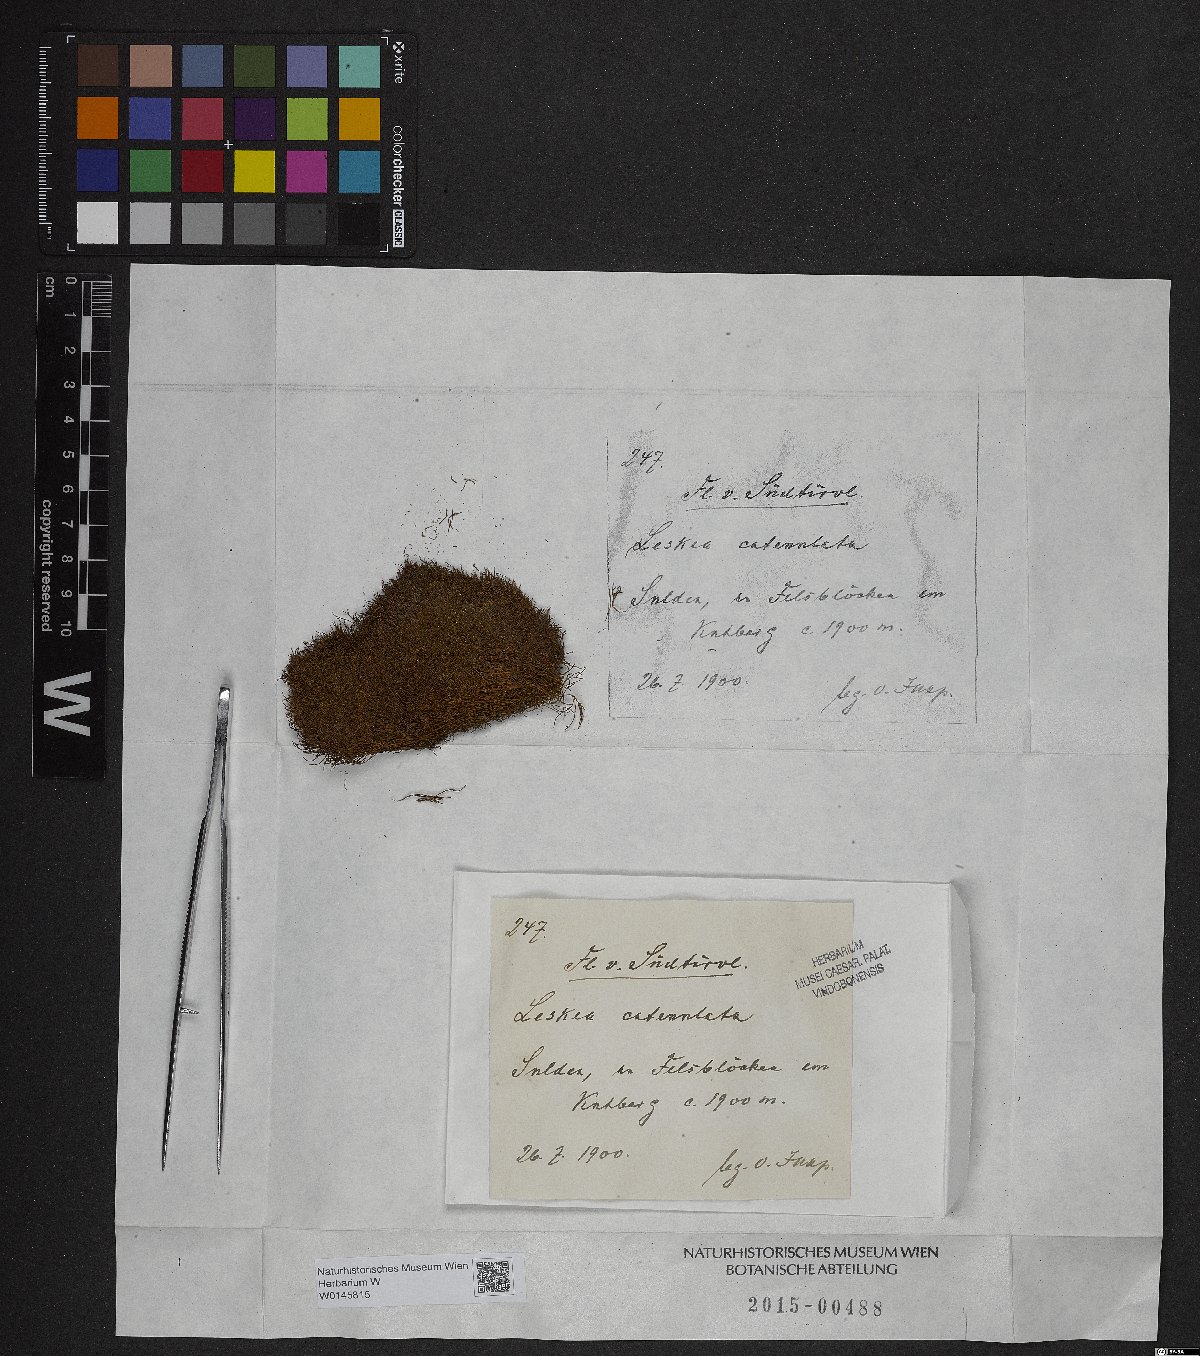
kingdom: Plantae
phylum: Bryophyta
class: Bryopsida
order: Hypnales
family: Pseudoleskeellaceae
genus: Pseudoleskeella
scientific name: Pseudoleskeella catenulata
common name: Chained leskea
